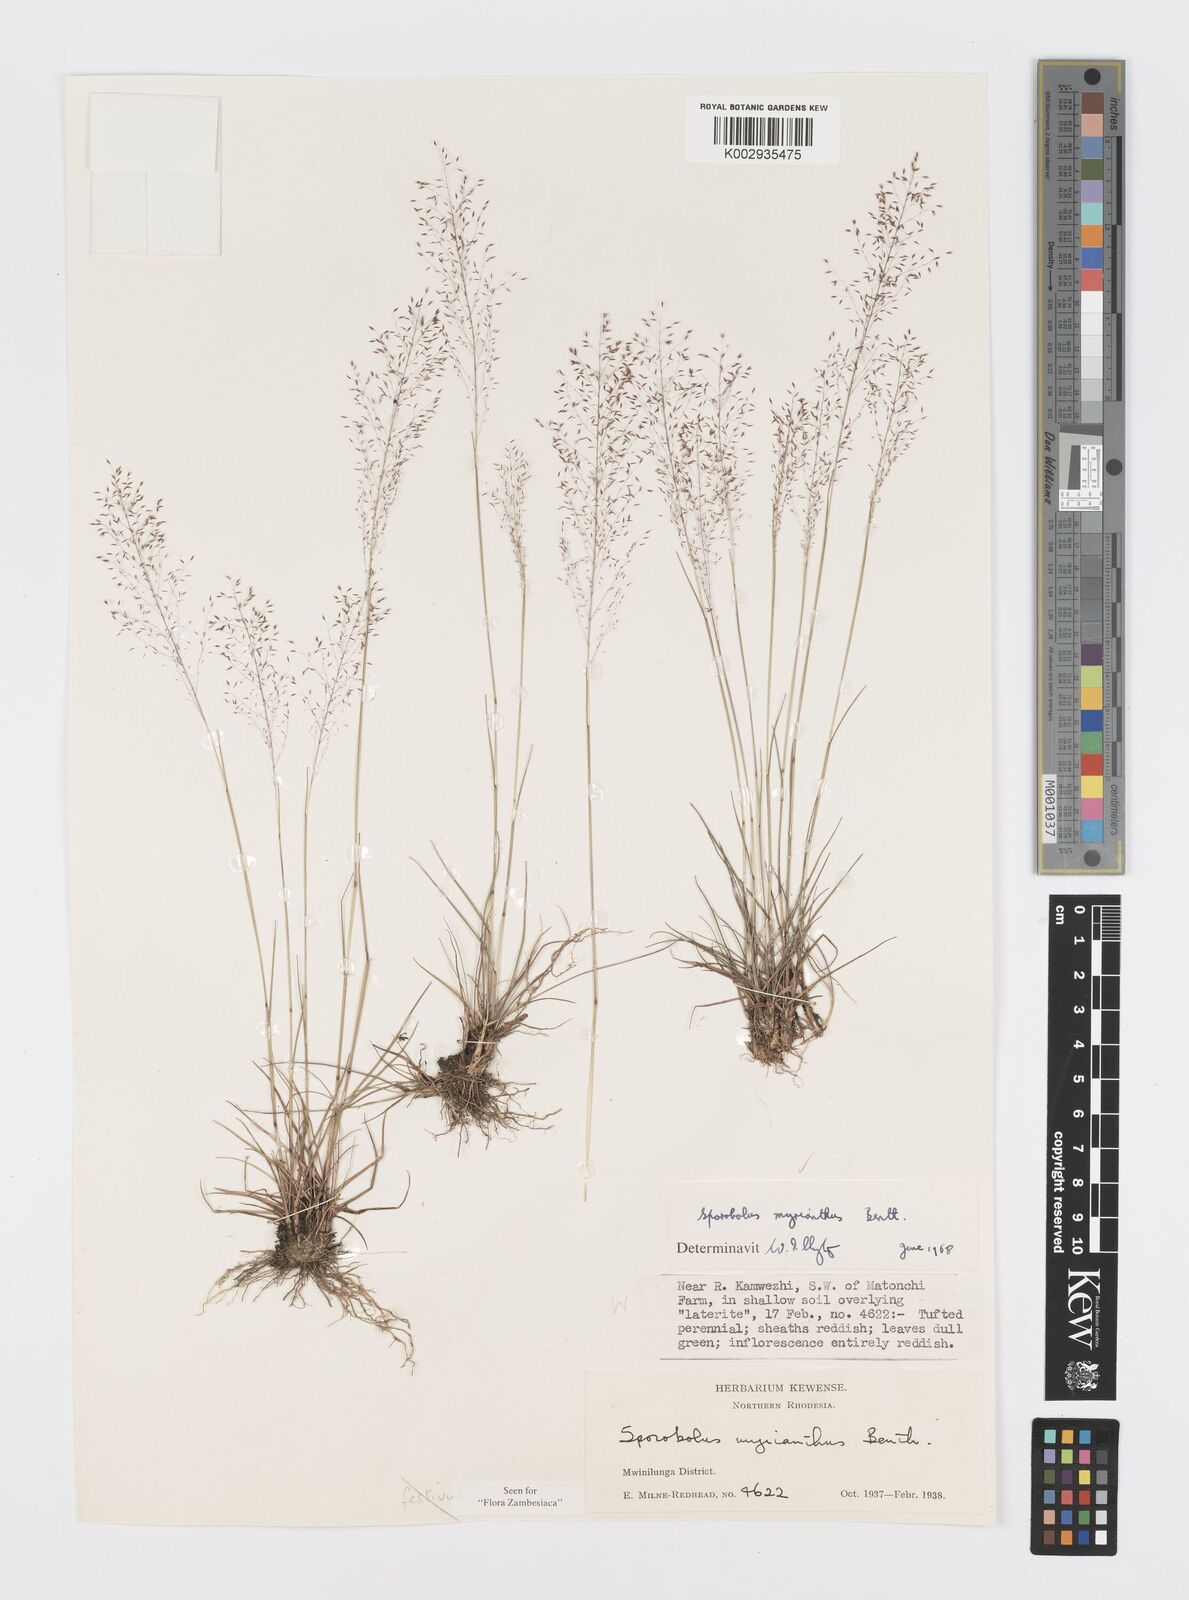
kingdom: Plantae
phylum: Tracheophyta
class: Liliopsida
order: Poales
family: Poaceae
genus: Sporobolus
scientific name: Sporobolus myrianthus
